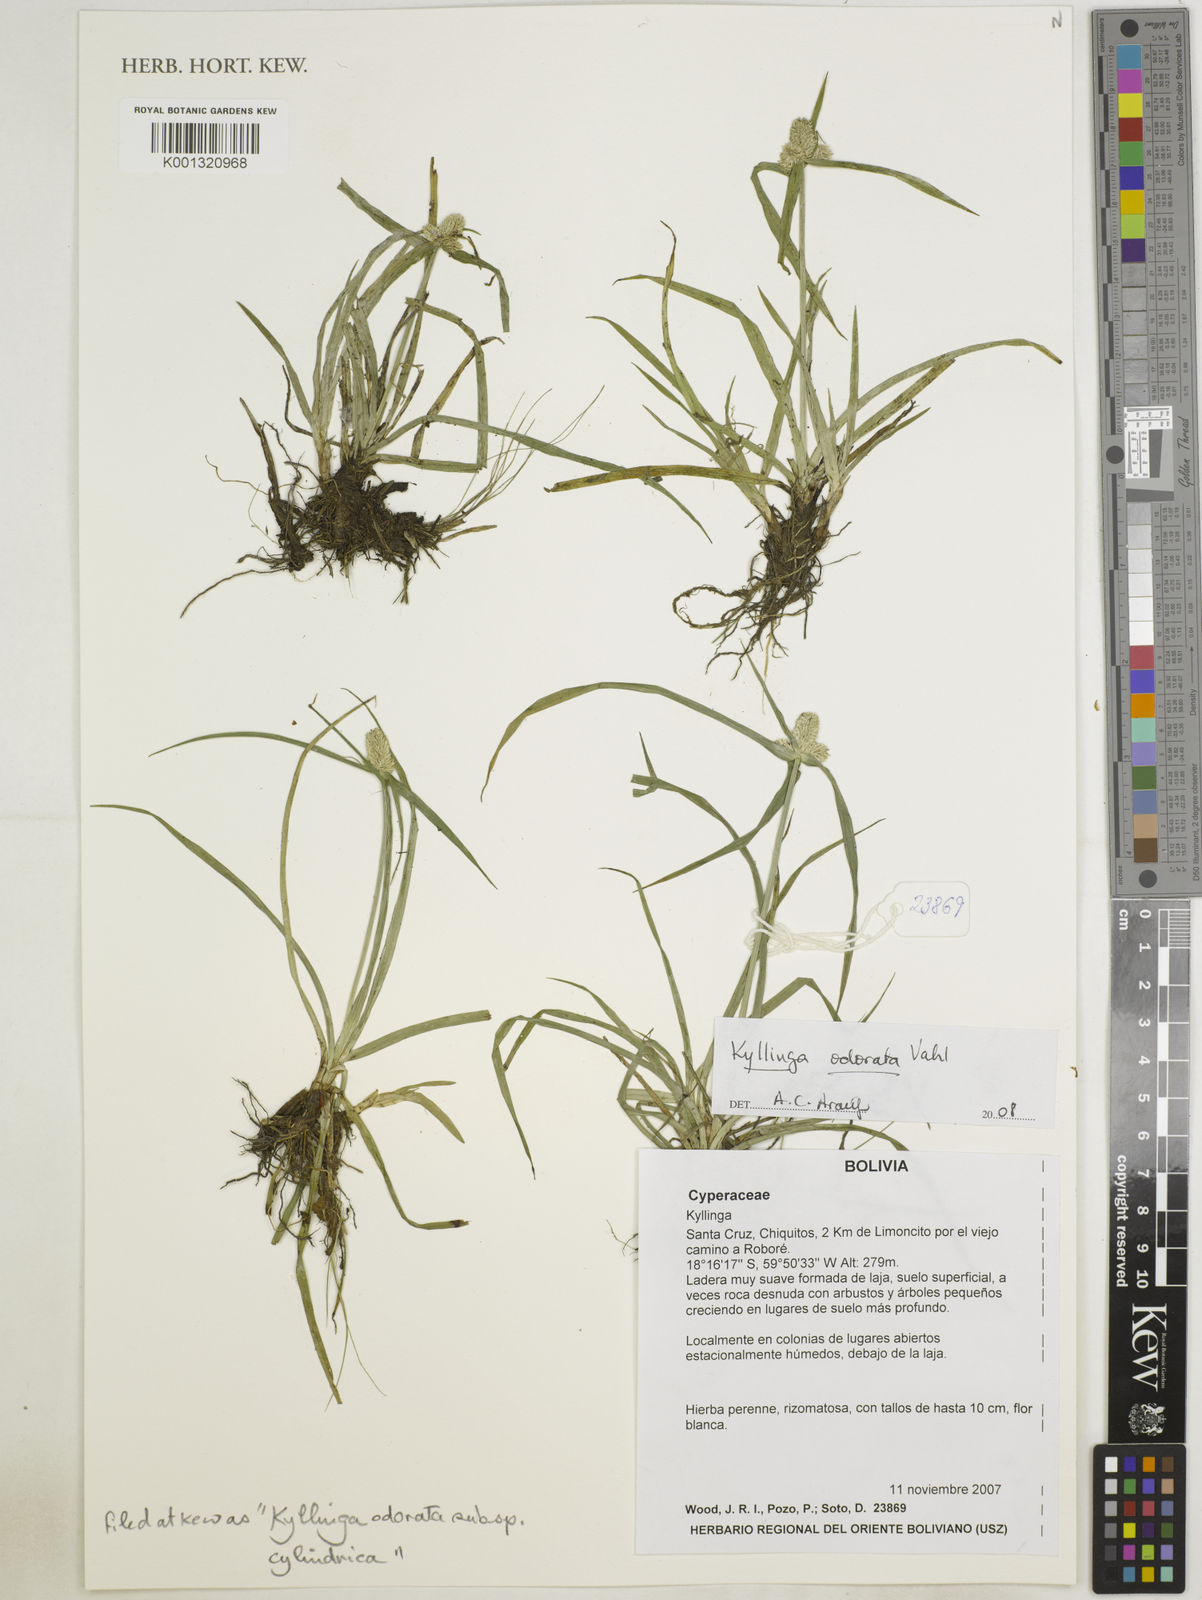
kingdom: Plantae
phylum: Tracheophyta
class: Liliopsida
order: Poales
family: Cyperaceae
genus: Cyperus
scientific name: Cyperus
